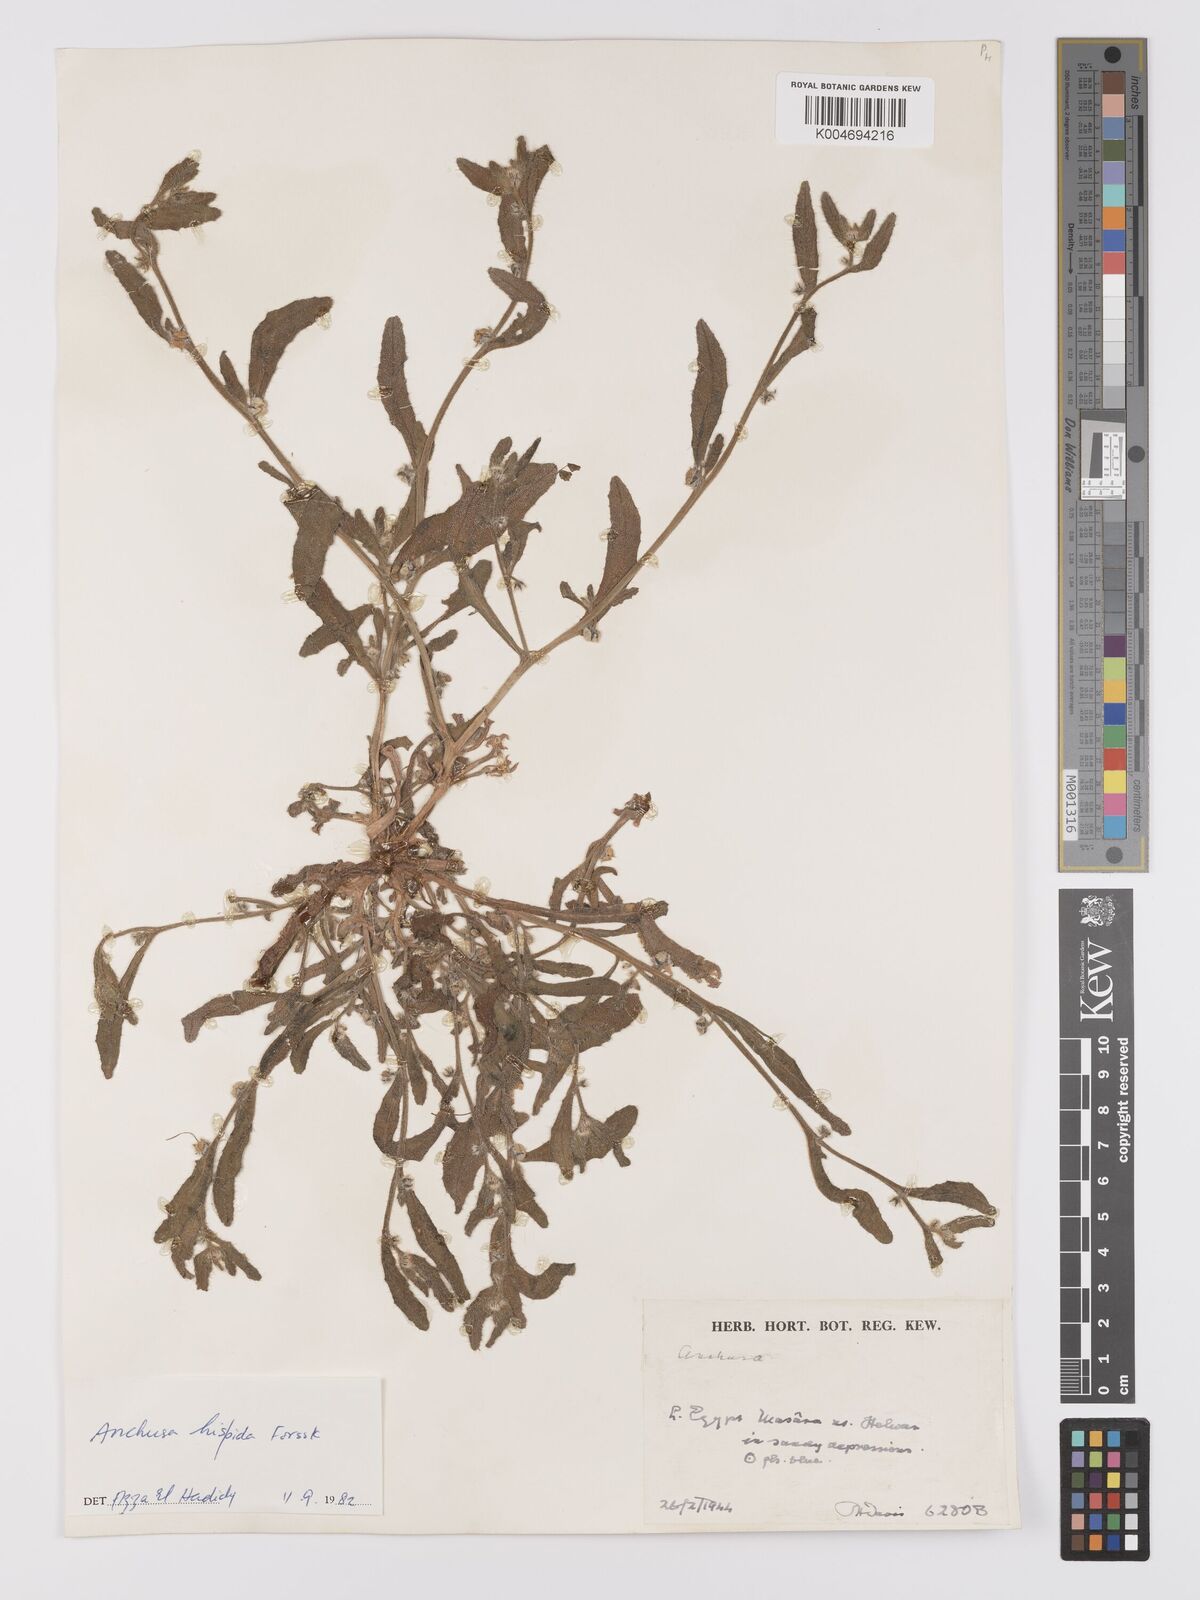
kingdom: Plantae
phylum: Tracheophyta
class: Magnoliopsida
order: Boraginales
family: Boraginaceae
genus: Gastrocotyle
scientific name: Gastrocotyle hispida
